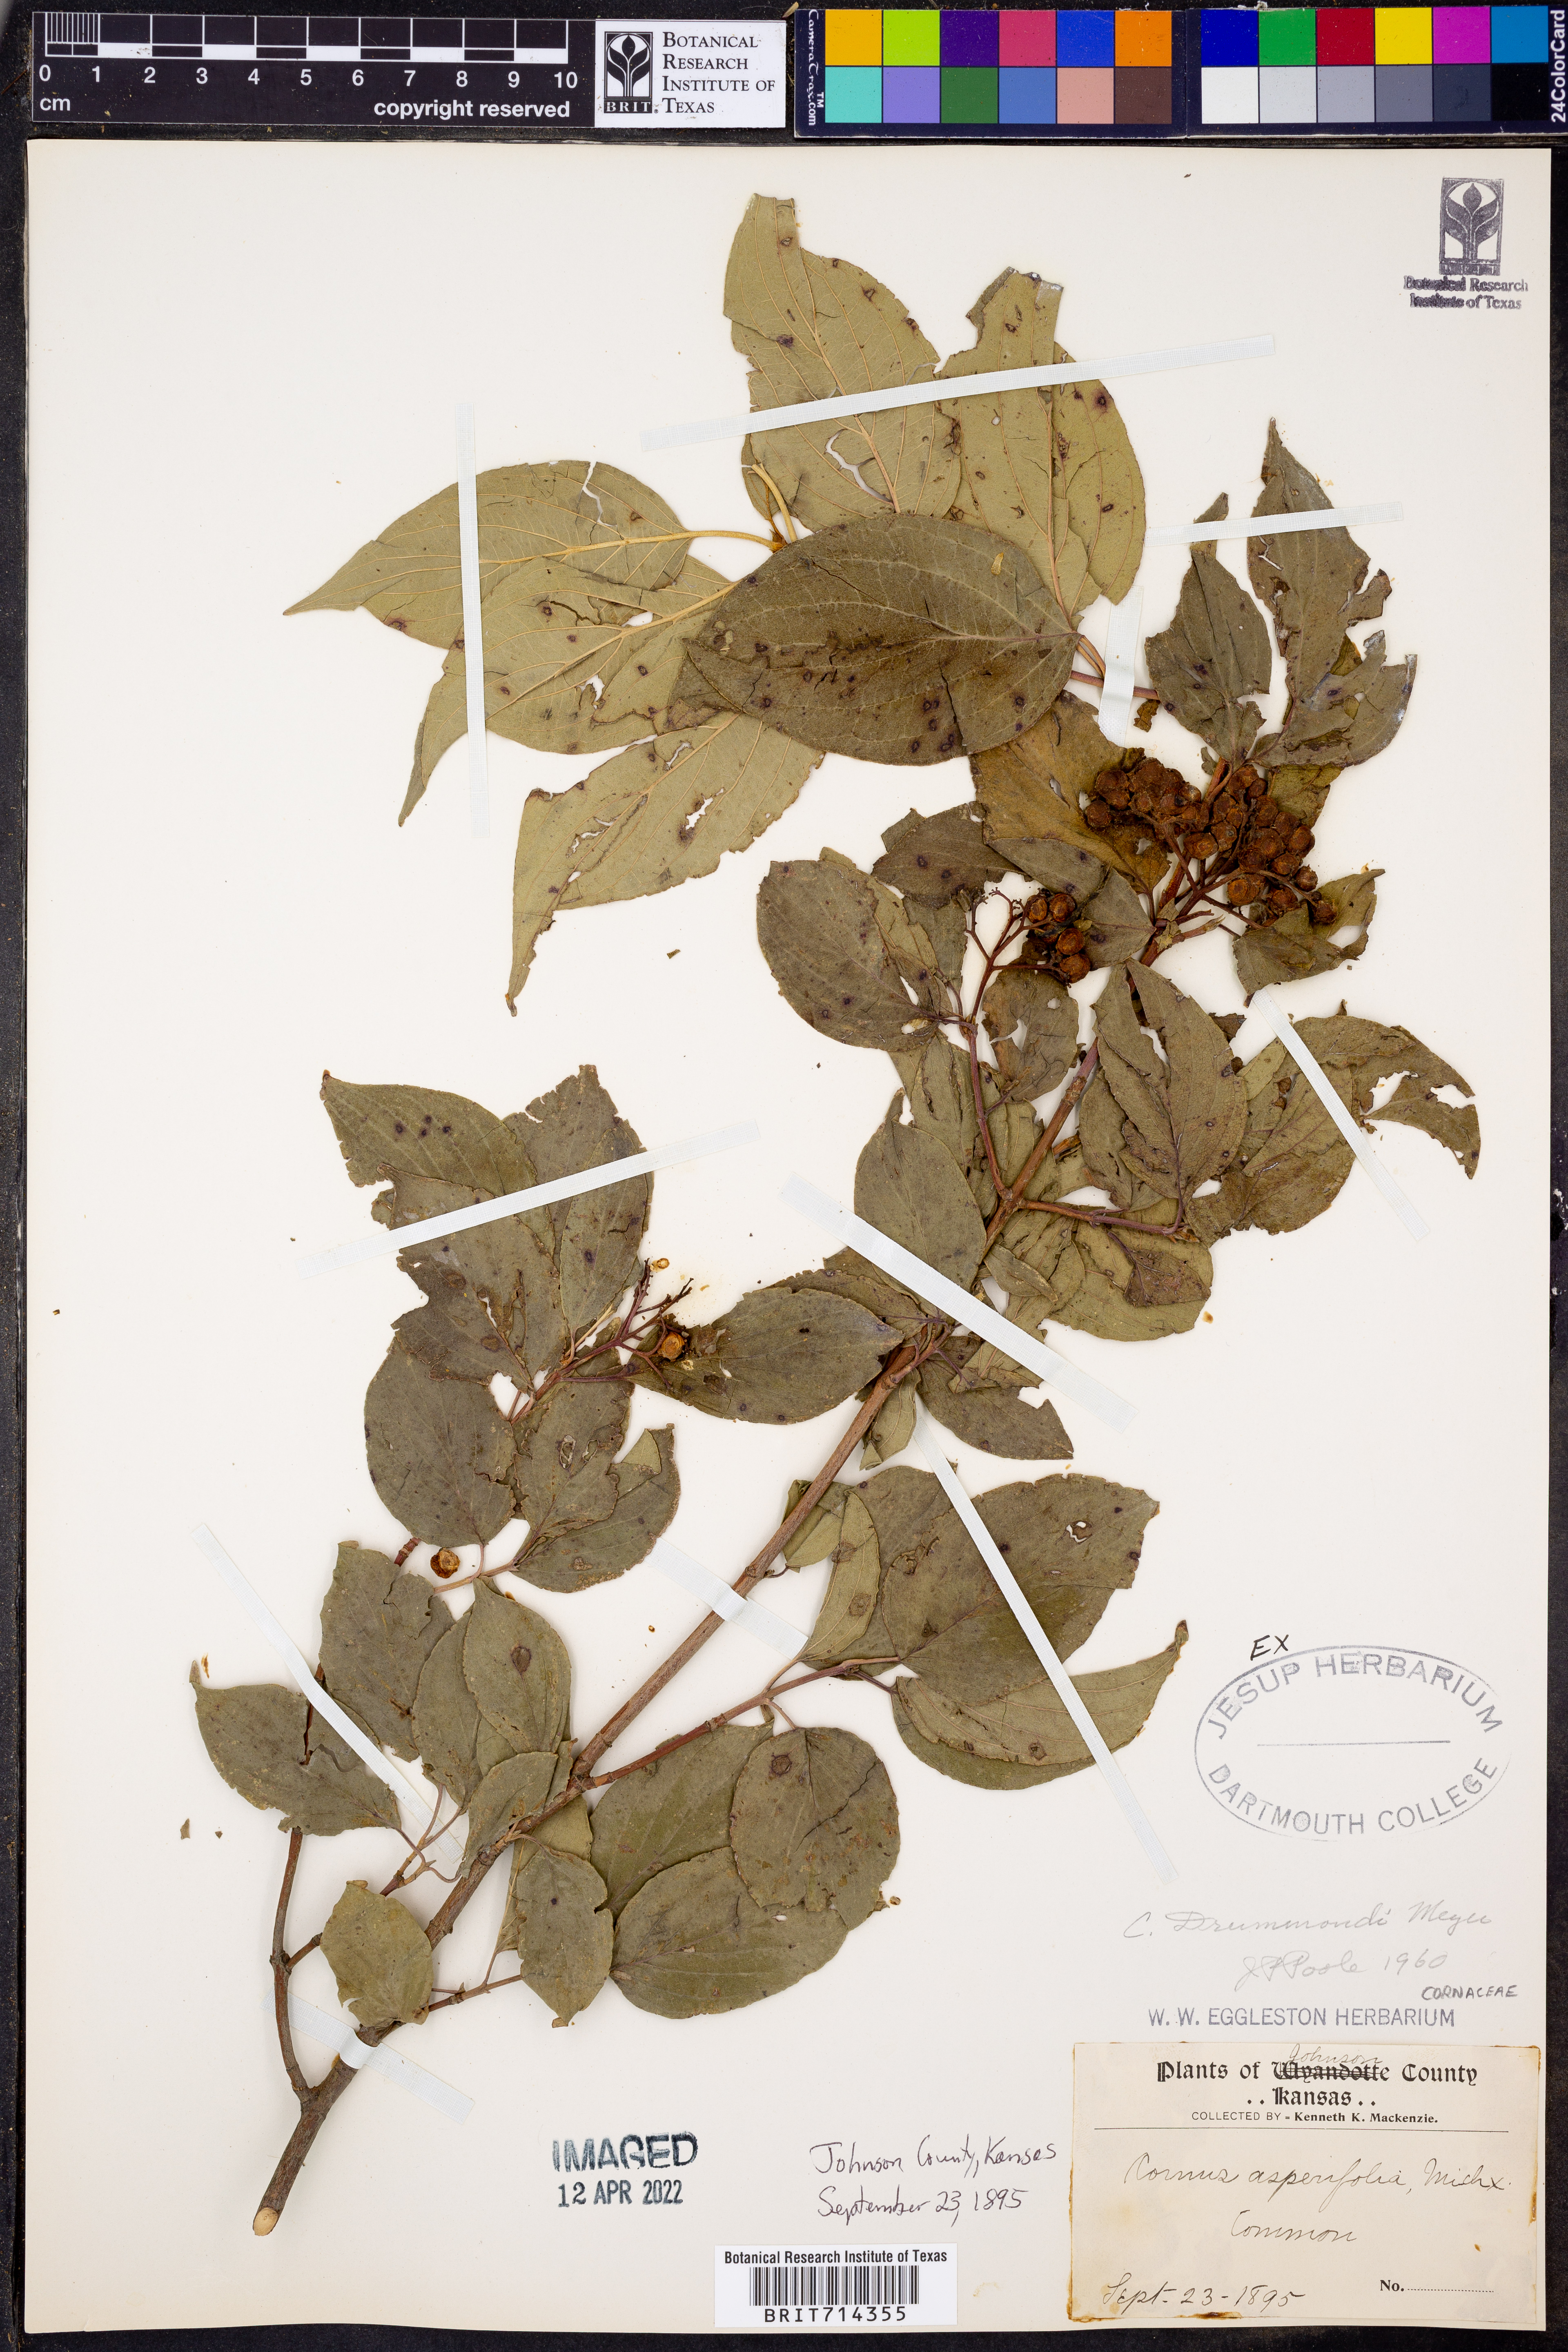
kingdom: Plantae
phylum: Tracheophyta
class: Magnoliopsida
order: Cornales
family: Cornaceae
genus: Cornus
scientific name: Cornus drummondii
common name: Rough-leaf dogwood
